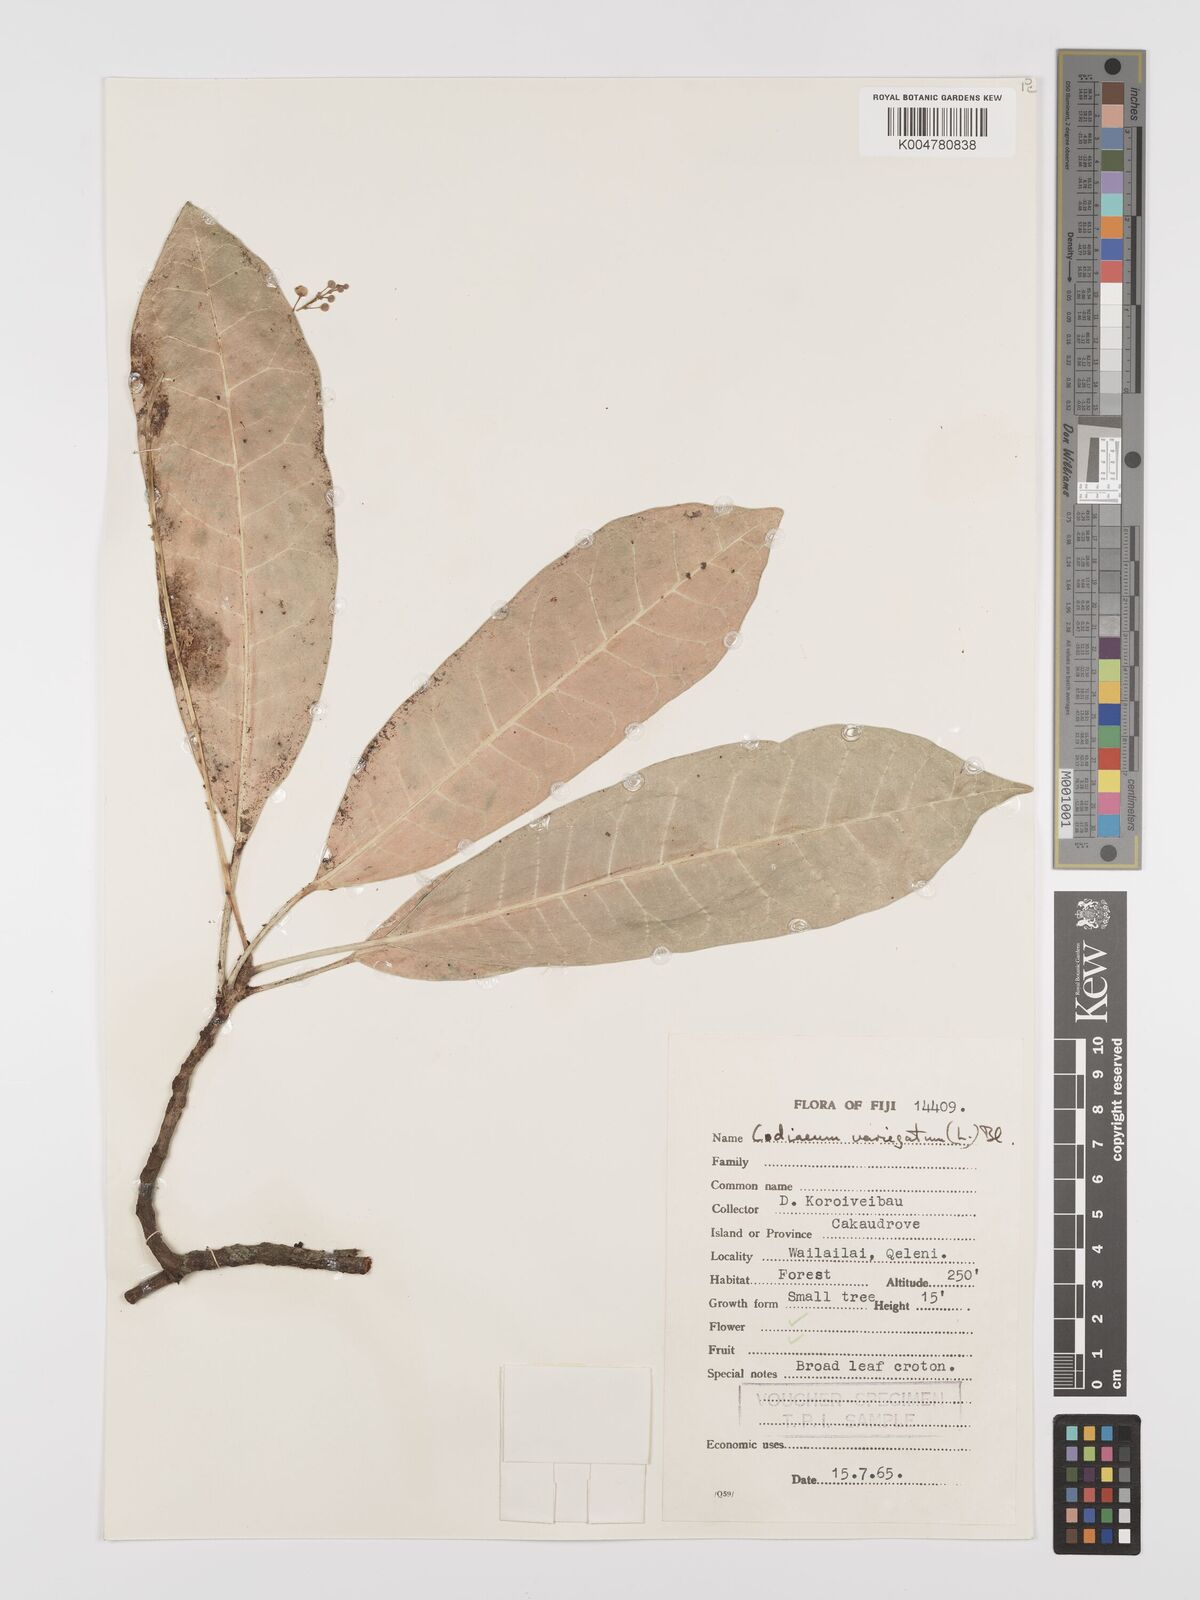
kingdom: Plantae
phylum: Tracheophyta
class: Magnoliopsida
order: Malpighiales
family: Euphorbiaceae
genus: Codiaeum
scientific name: Codiaeum variegatum
